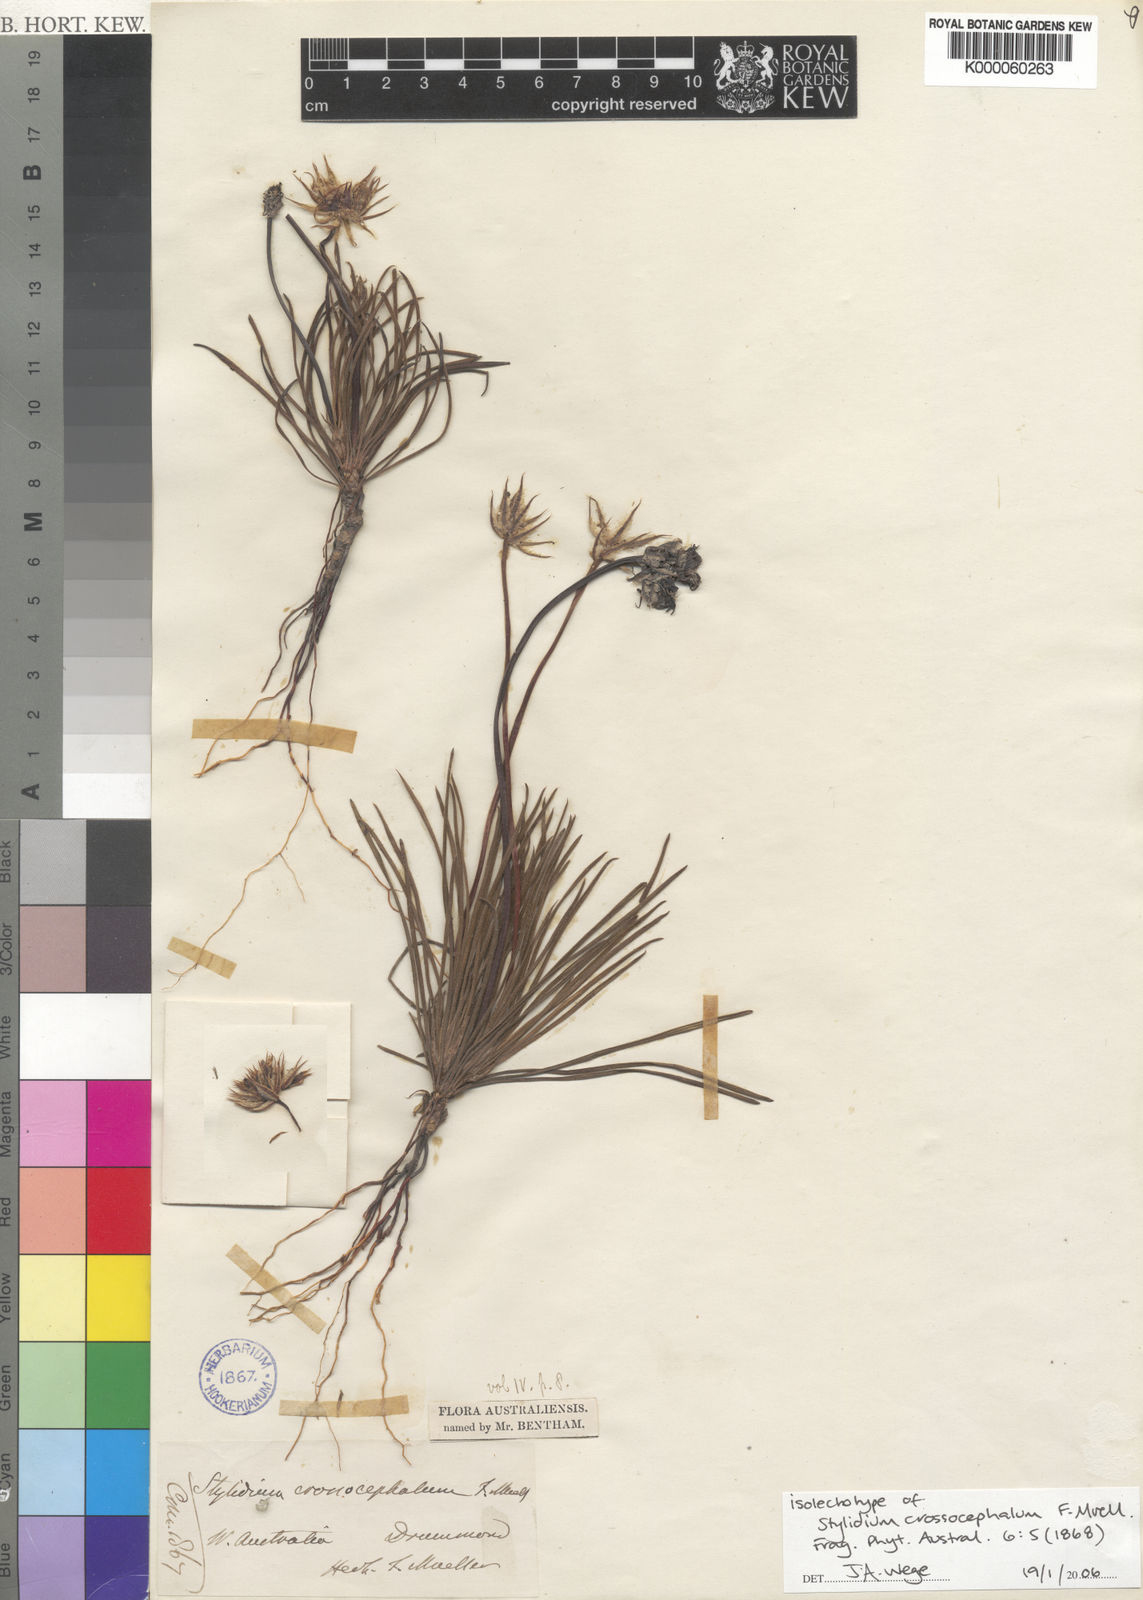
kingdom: Plantae
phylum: Tracheophyta
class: Magnoliopsida
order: Asterales
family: Stylidiaceae
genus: Stylidium
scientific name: Stylidium crossocephalum
